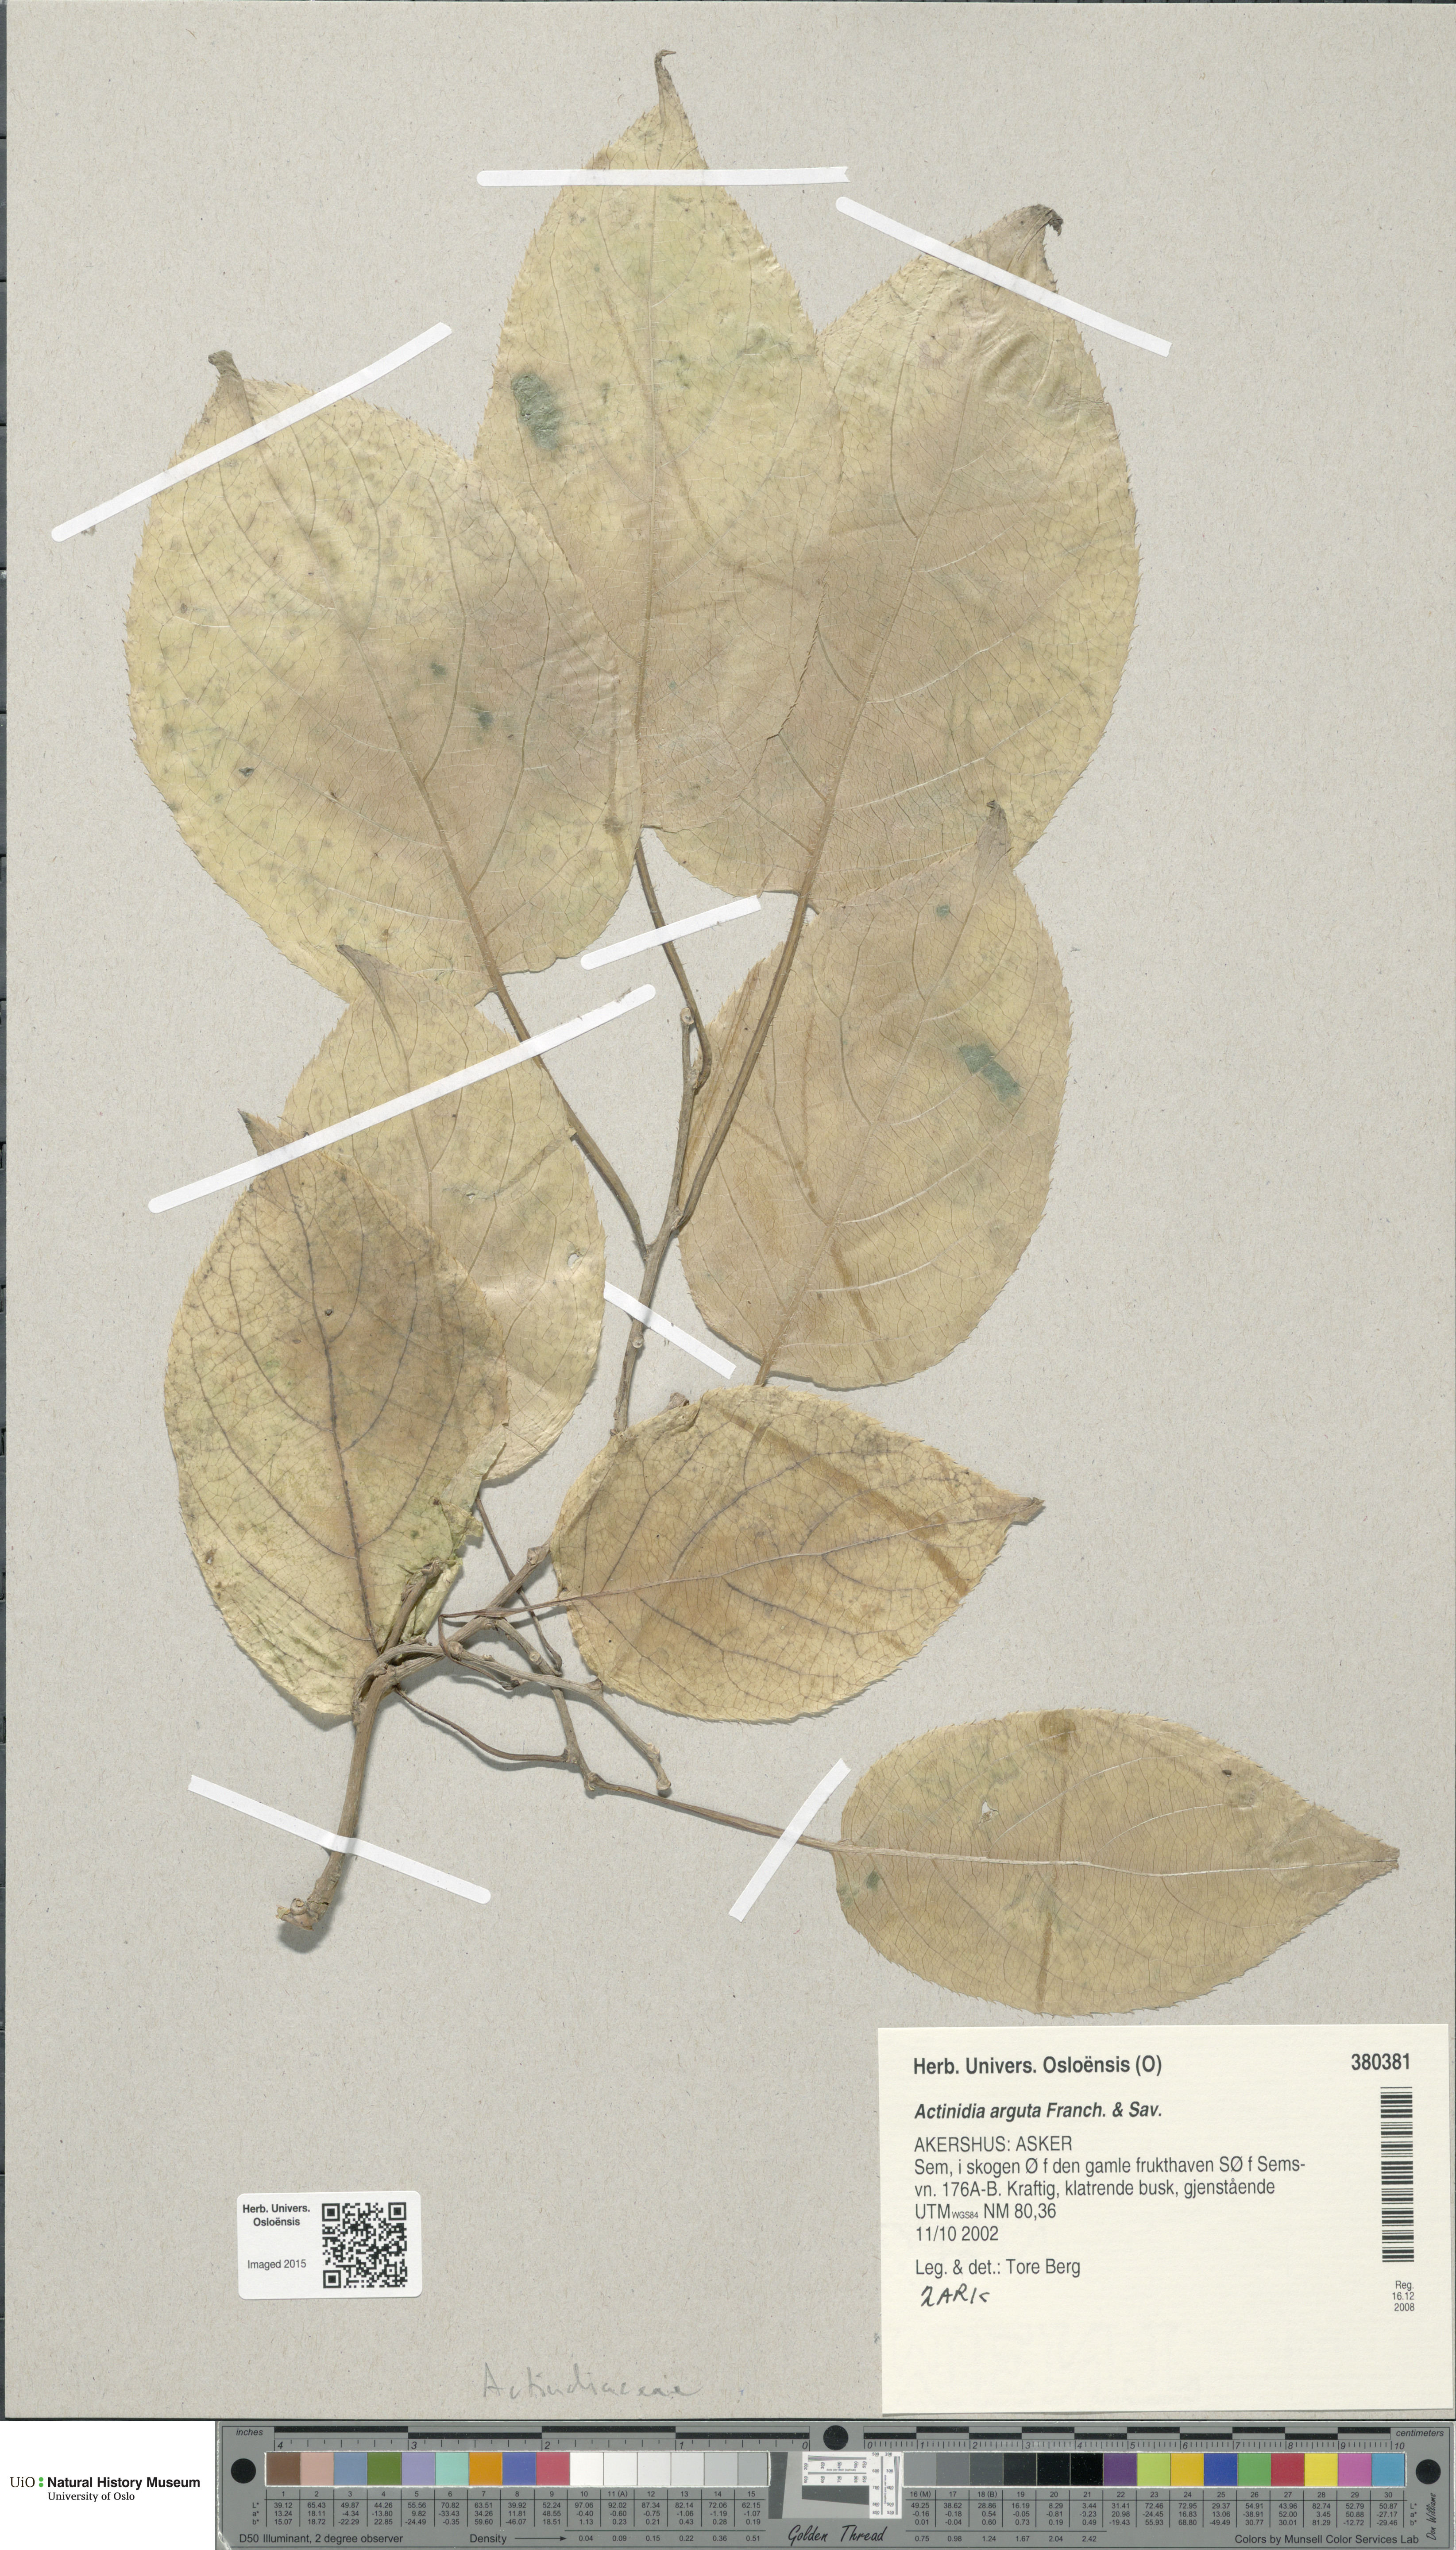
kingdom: Plantae
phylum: Tracheophyta
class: Magnoliopsida
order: Ericales
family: Actinidiaceae
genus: Actinidia
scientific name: Actinidia arguta
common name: Tara vine
